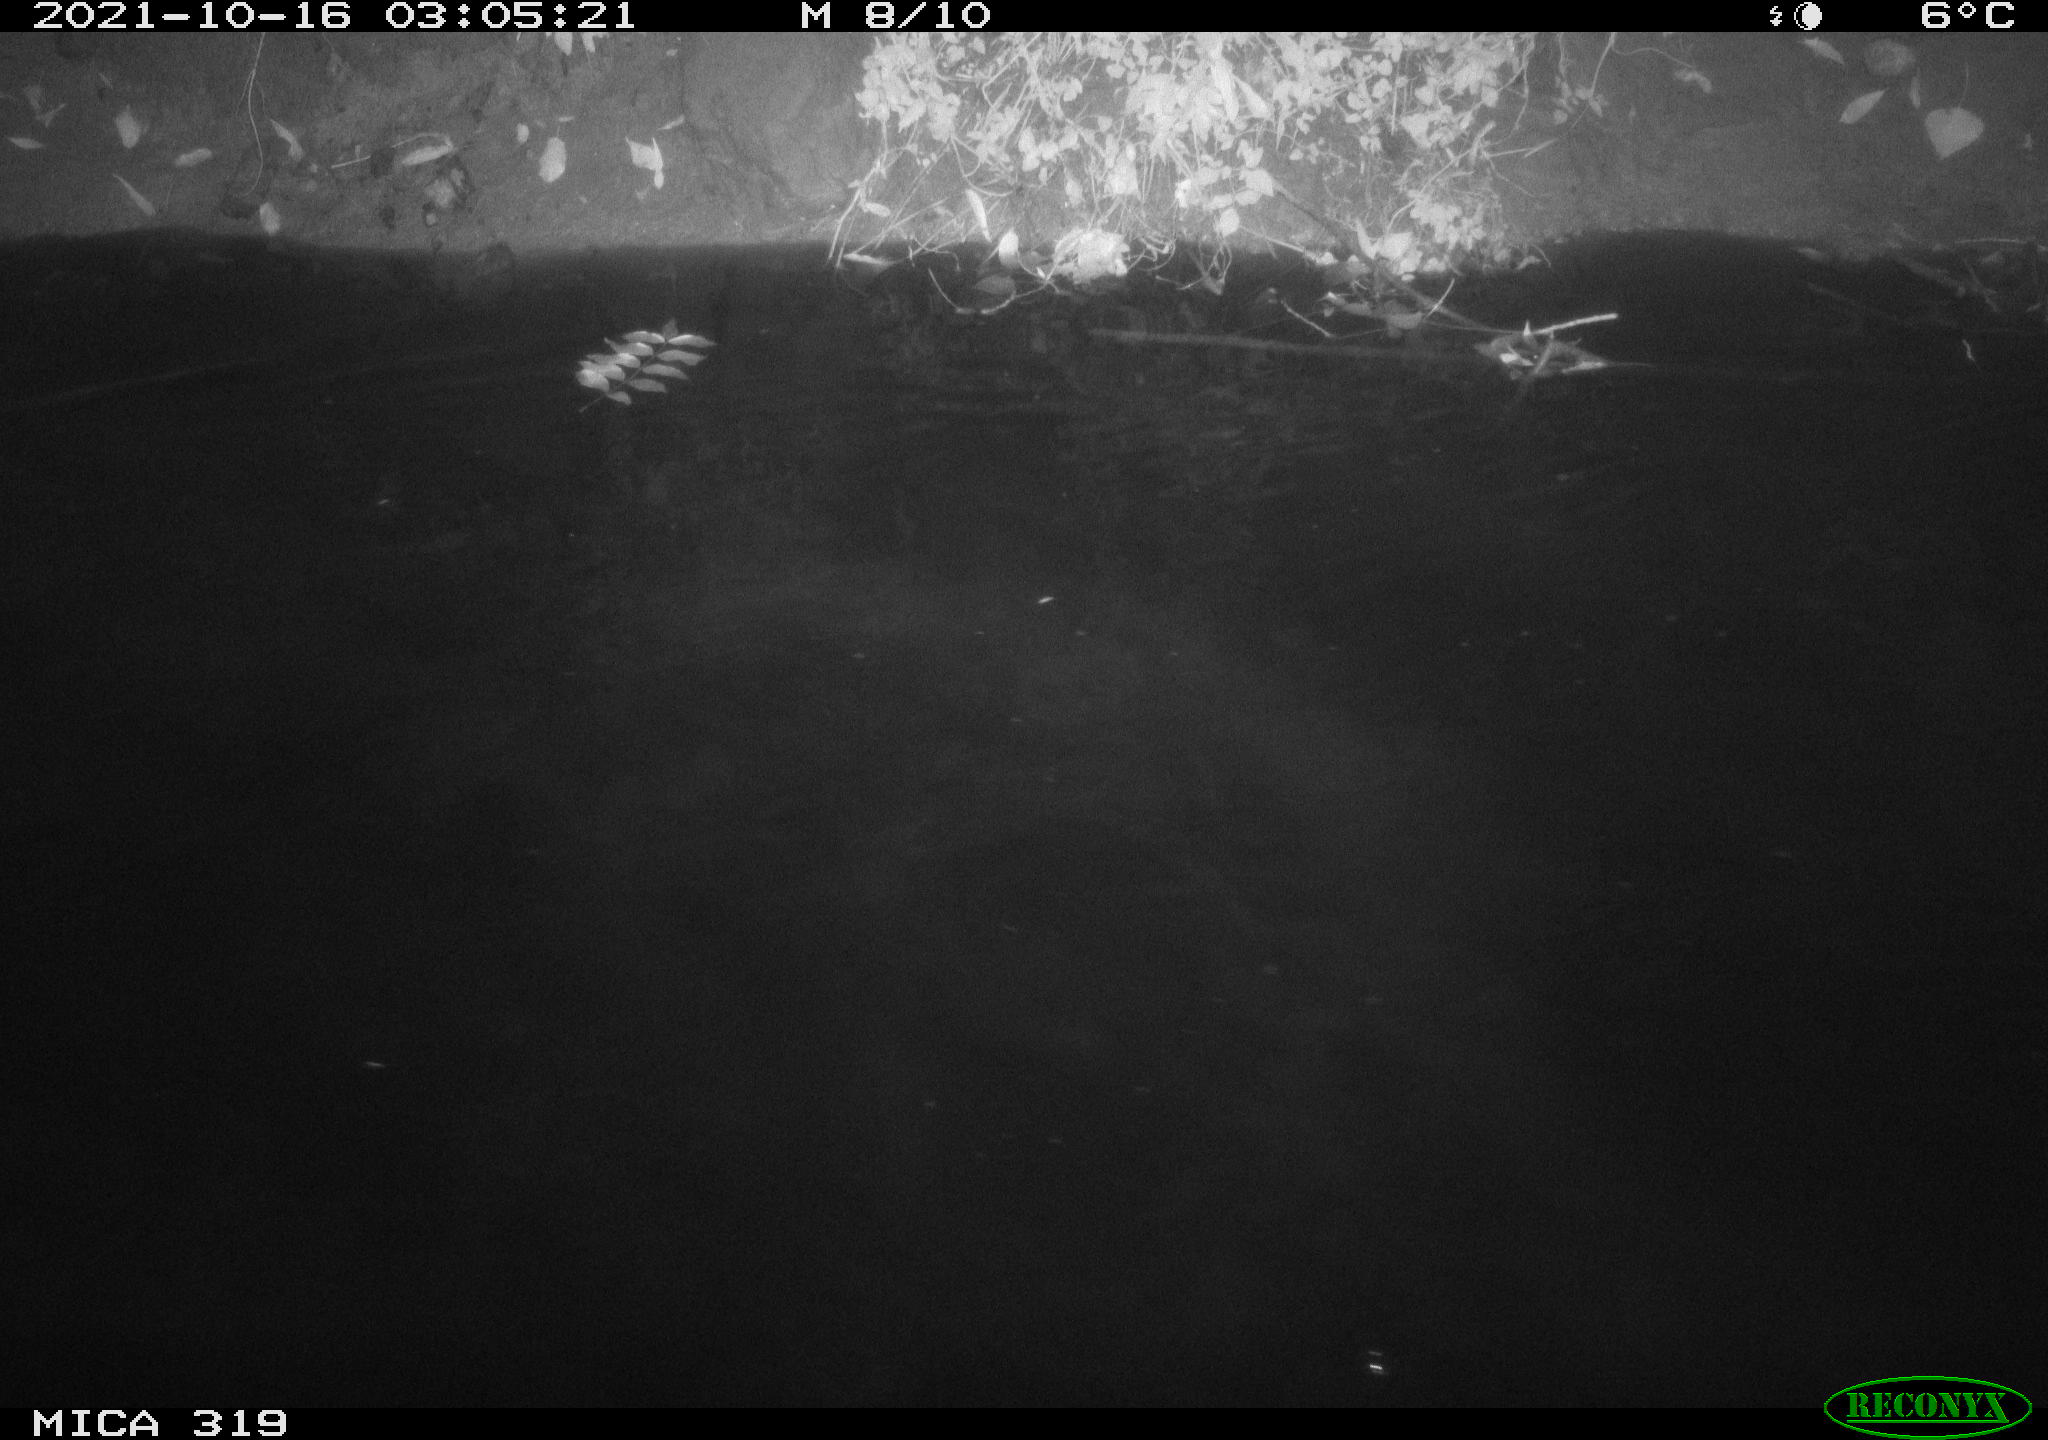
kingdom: Animalia
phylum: Chordata
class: Aves
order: Anseriformes
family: Anatidae
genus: Anas
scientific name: Anas platyrhynchos
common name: Mallard
